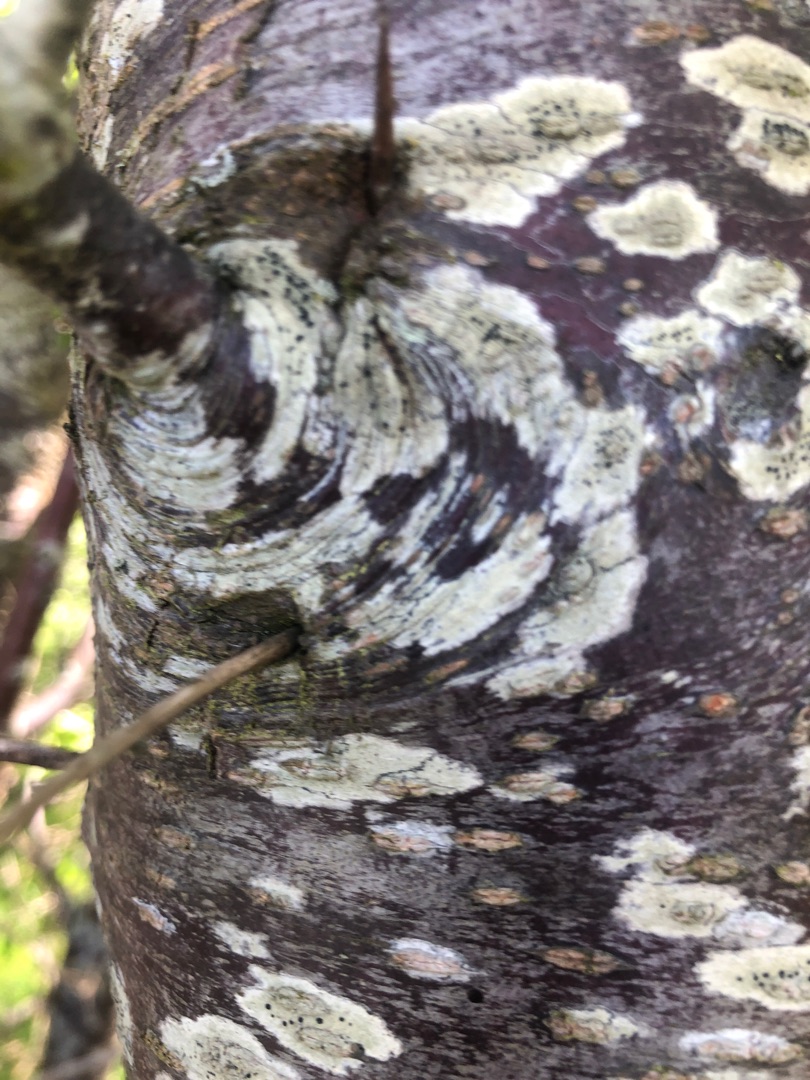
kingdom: Fungi
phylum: Ascomycota
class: Lecanoromycetes
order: Lecanorales
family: Lecanoraceae
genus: Lecidella
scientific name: Lecidella elaeochroma
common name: Grågrøn skivelav
